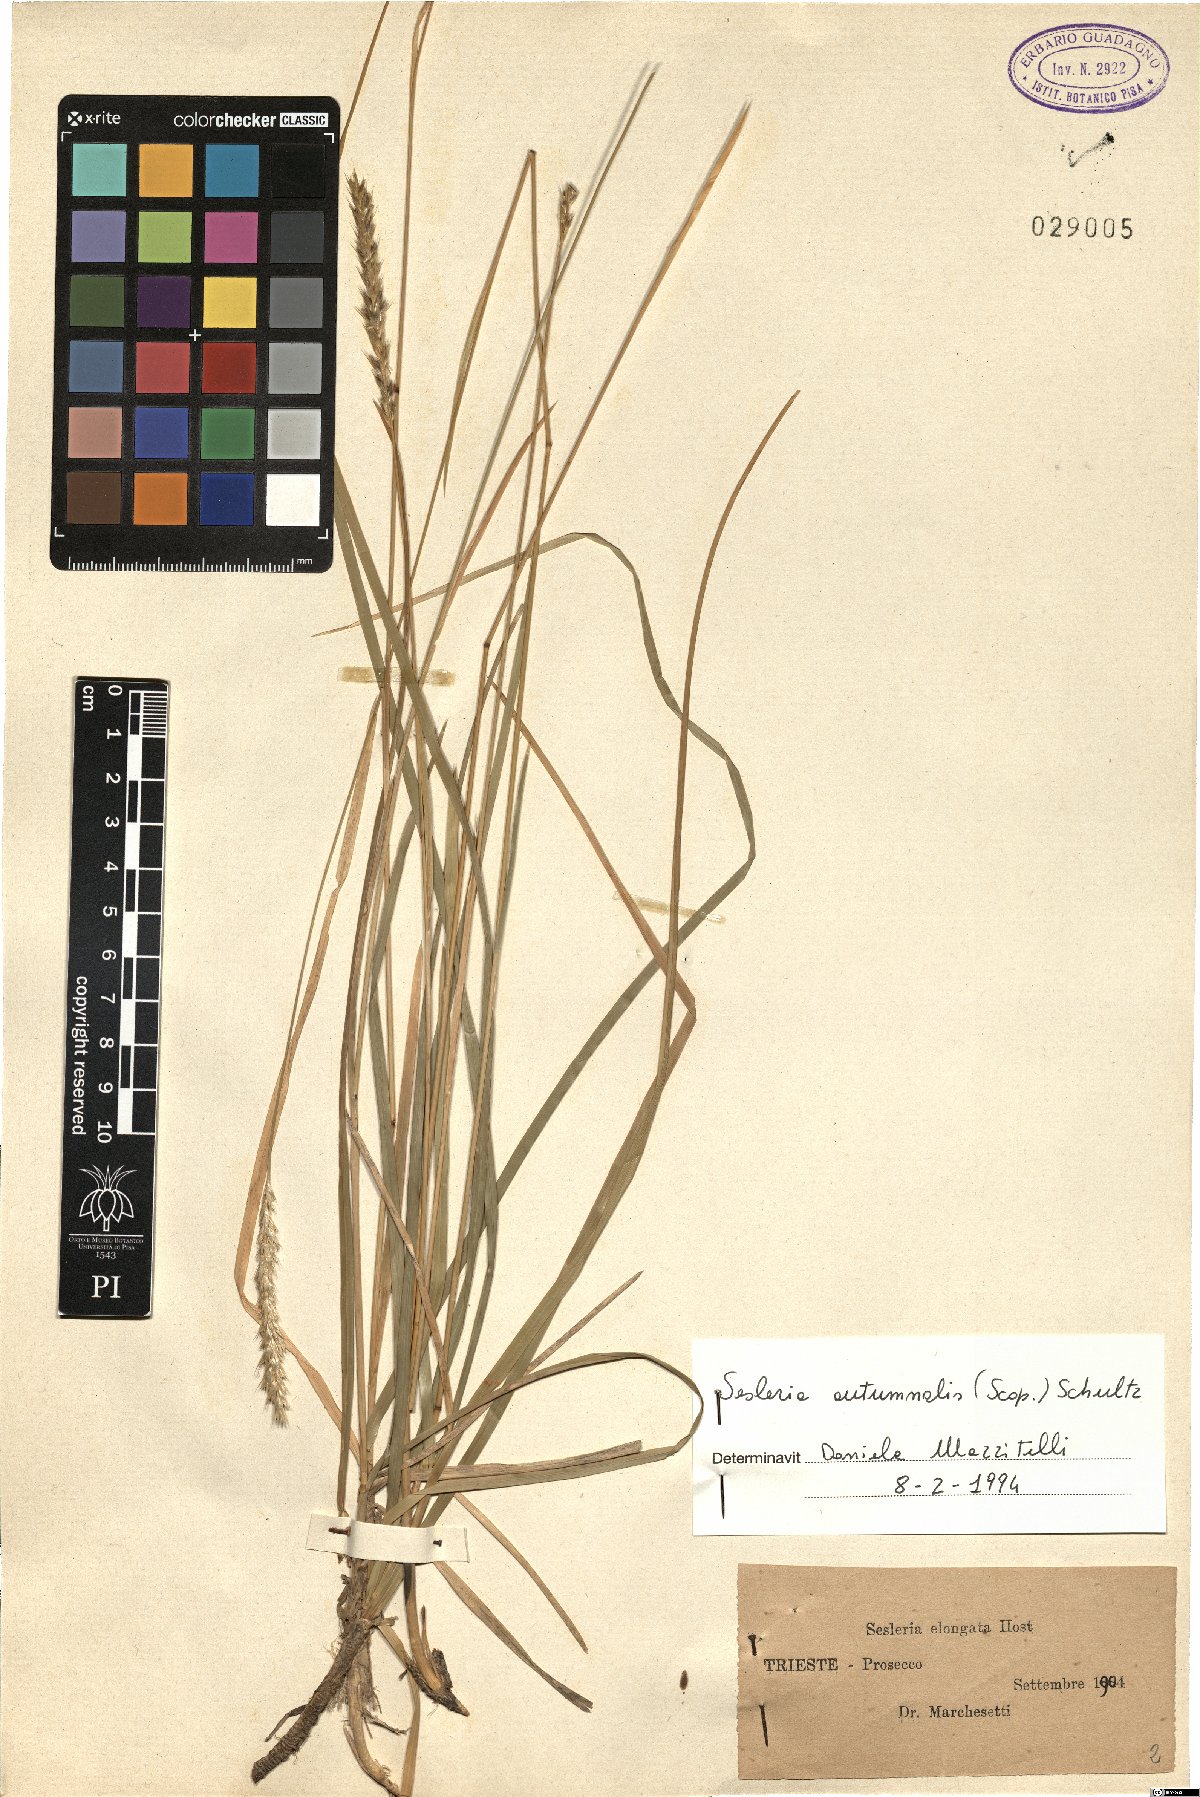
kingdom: Plantae
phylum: Tracheophyta
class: Liliopsida
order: Poales
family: Poaceae
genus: Sesleria
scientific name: Sesleria autumnalis
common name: Autumn moor grass
